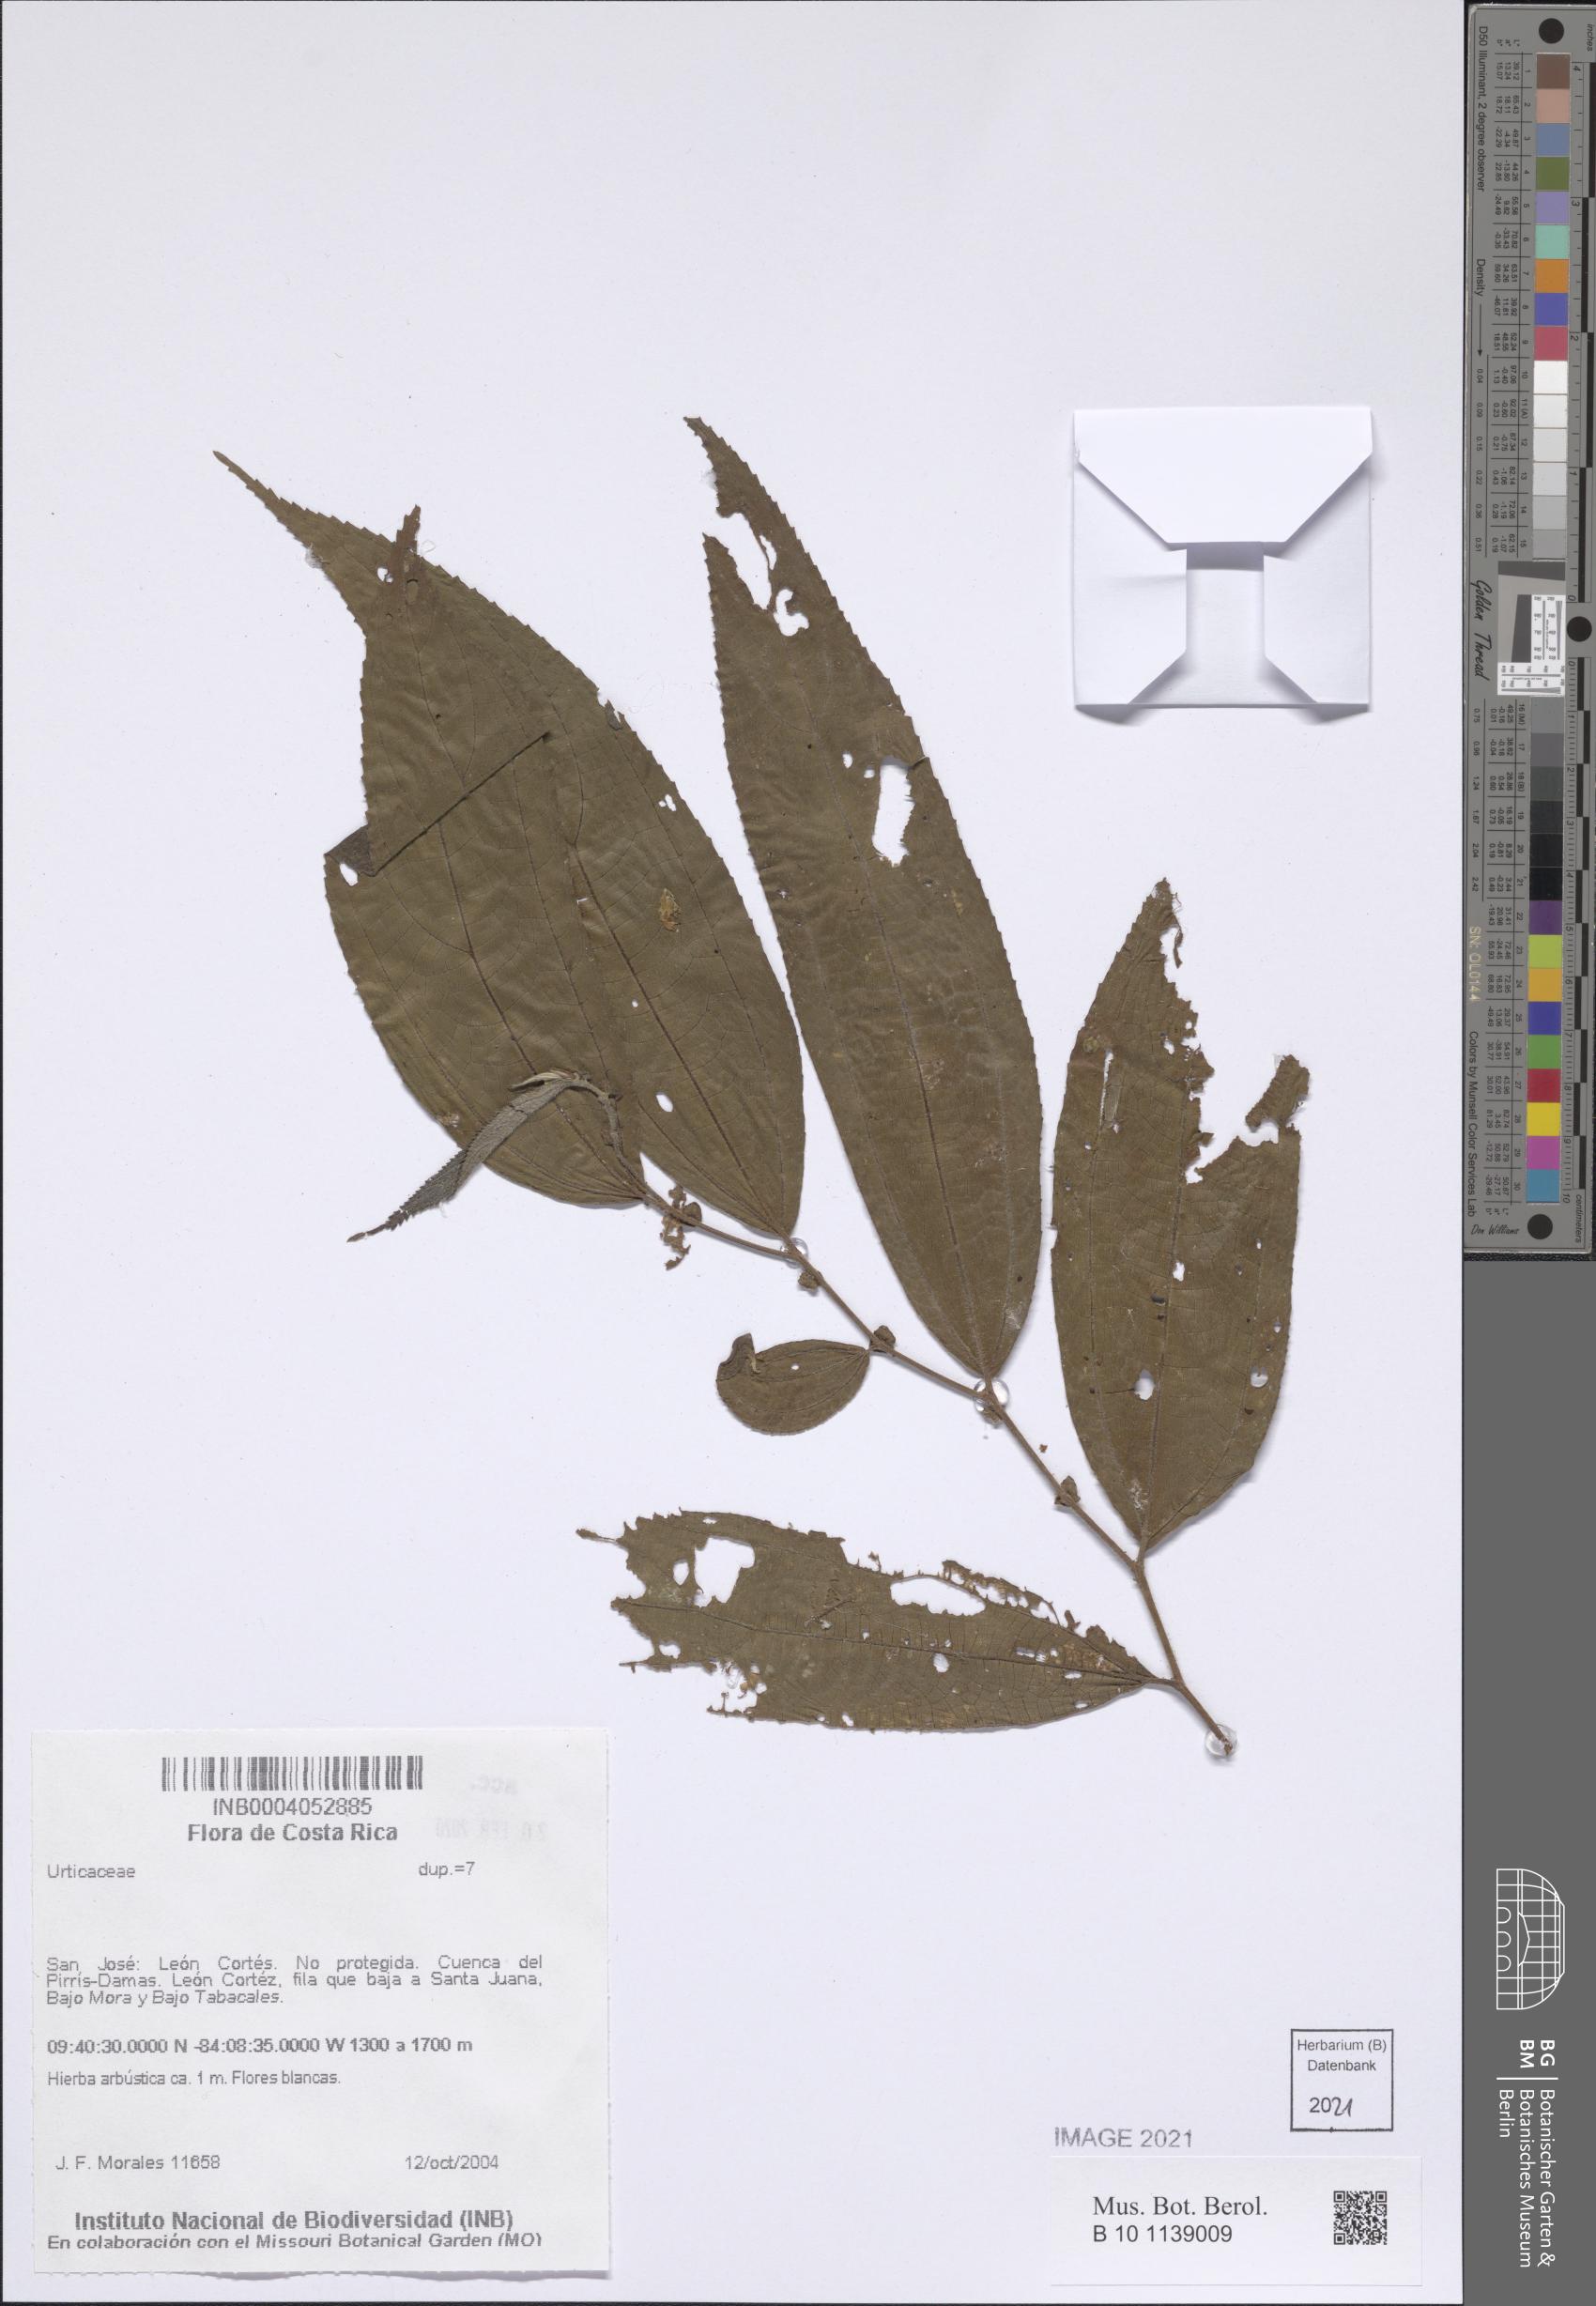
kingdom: Plantae
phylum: Tracheophyta
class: Magnoliopsida
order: Rosales
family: Urticaceae
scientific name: Urticaceae
